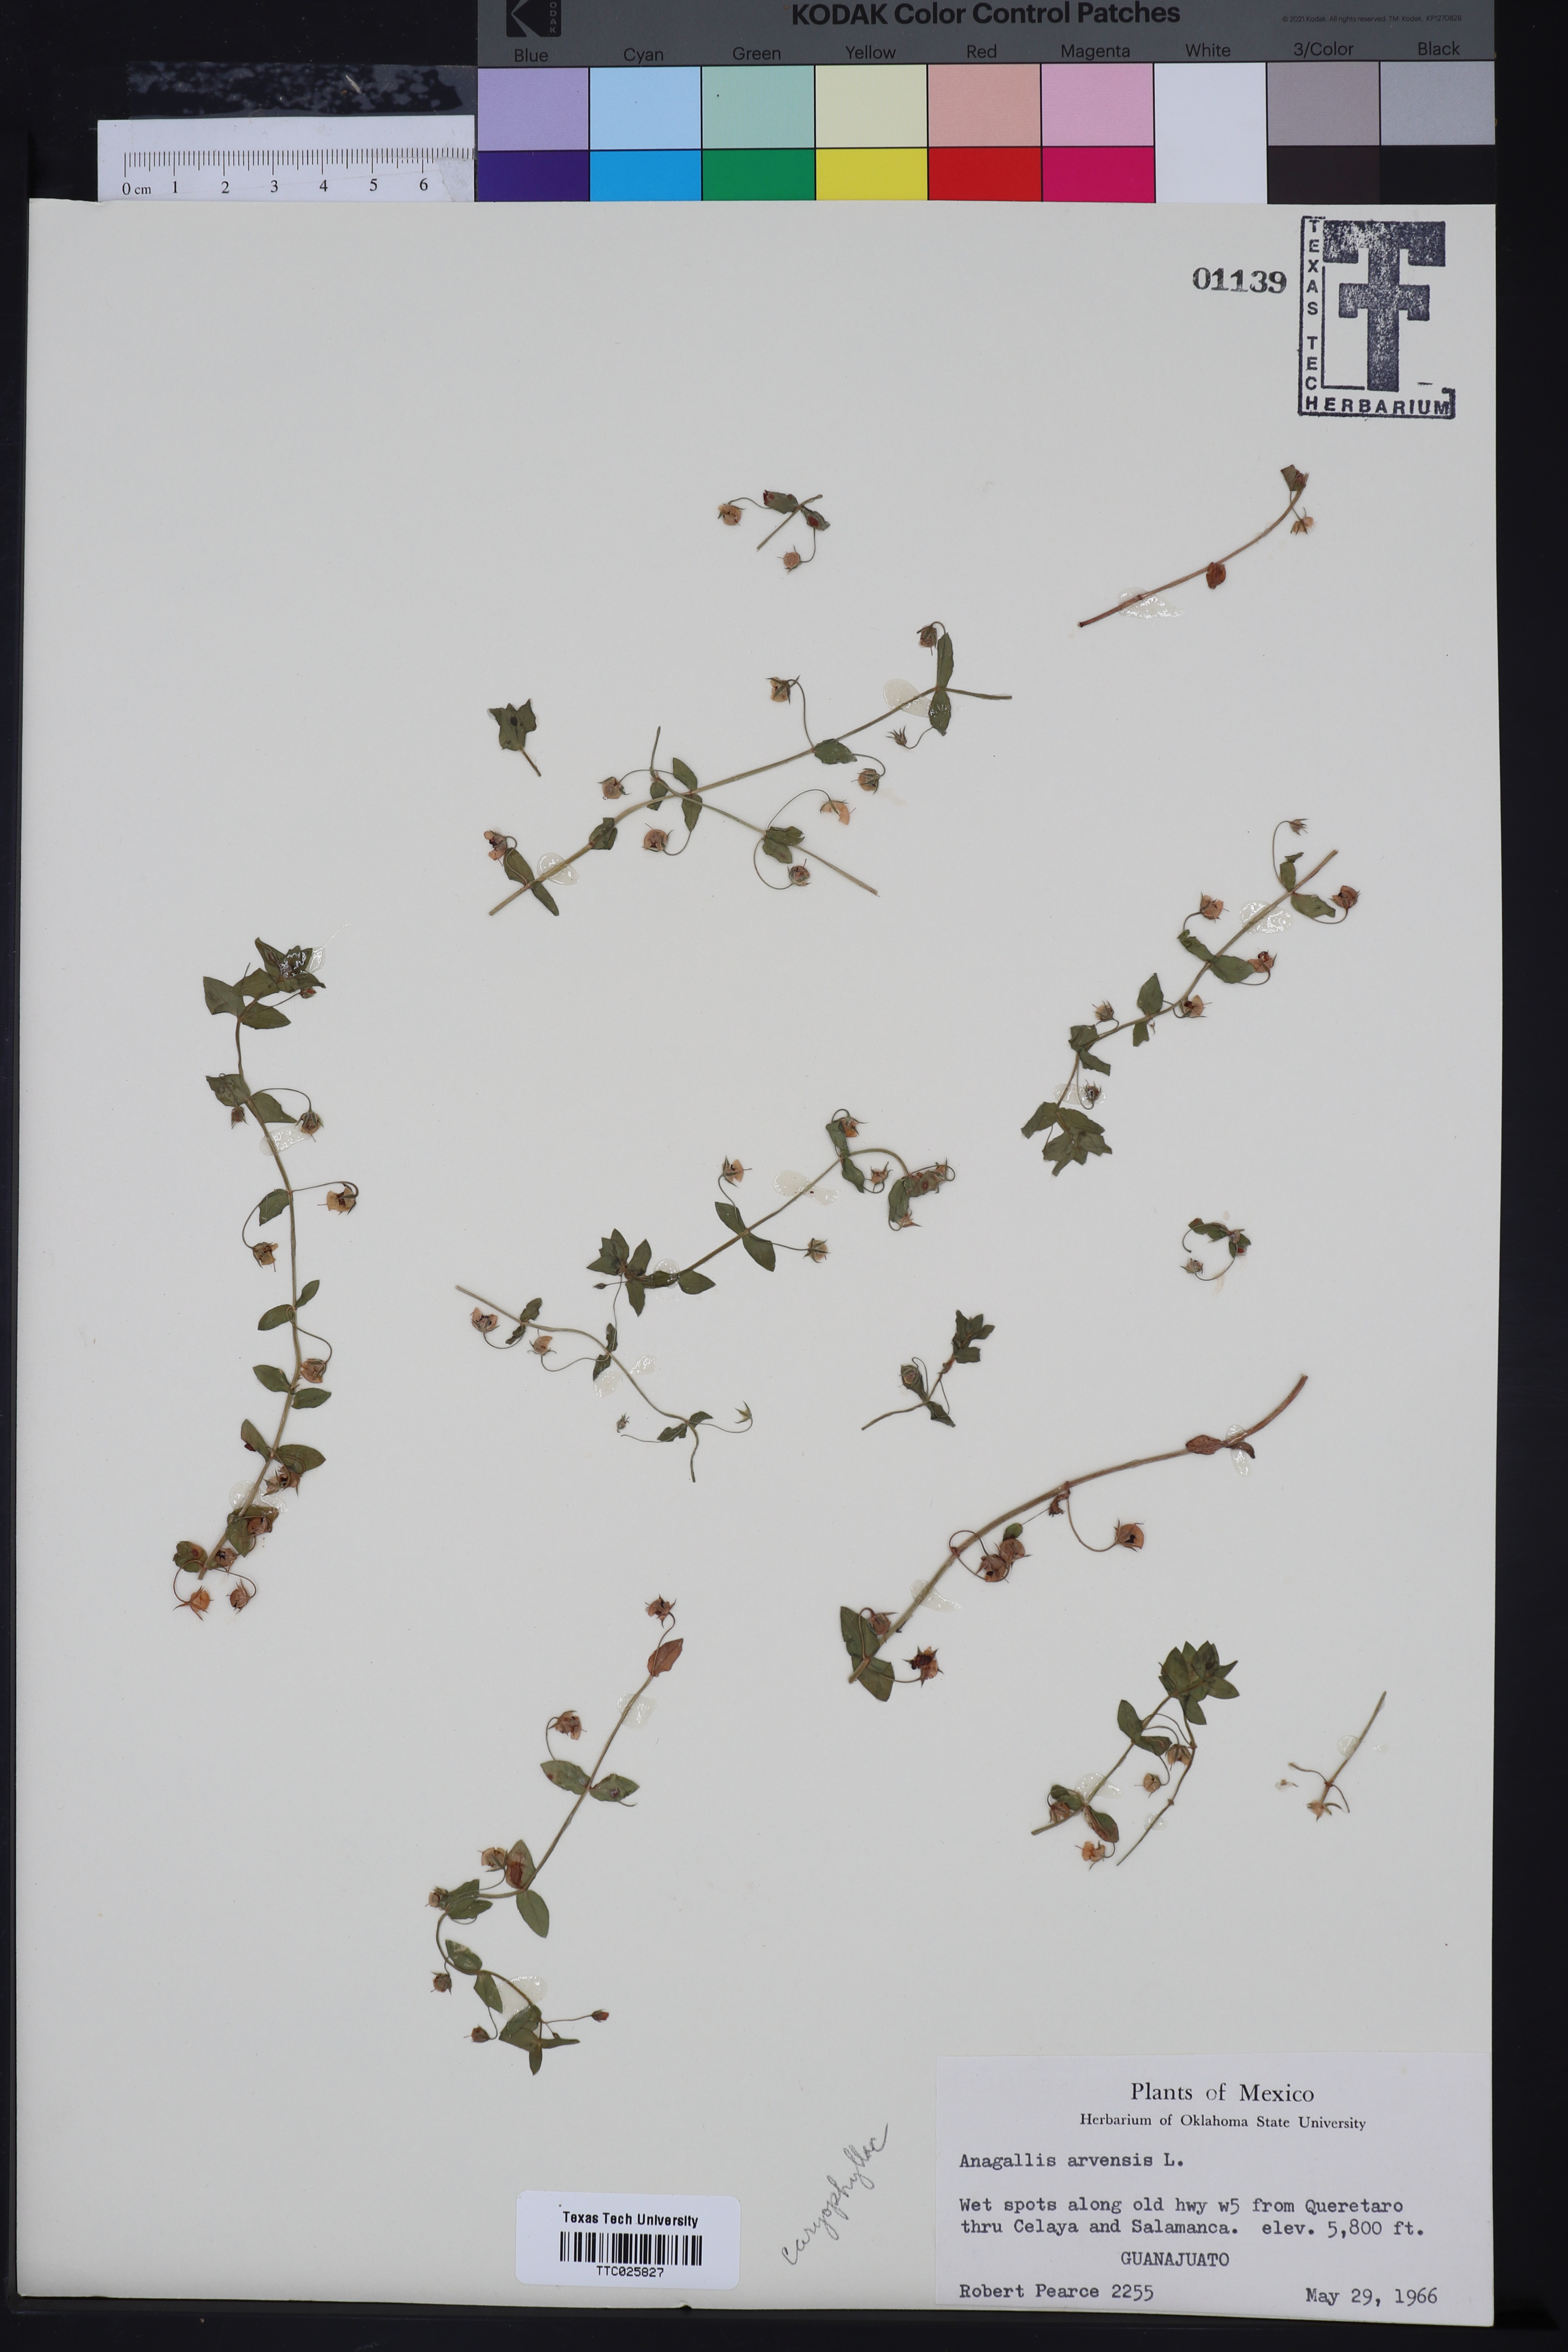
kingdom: Plantae
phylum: Tracheophyta
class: Magnoliopsida
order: Ericales
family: Primulaceae
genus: Lysimachia
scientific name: Lysimachia arvensis
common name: Scarlet pimpernel
